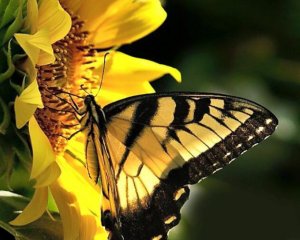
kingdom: Animalia
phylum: Arthropoda
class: Insecta
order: Lepidoptera
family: Papilionidae
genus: Pterourus
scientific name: Pterourus glaucus
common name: Eastern Tiger Swallowtail
